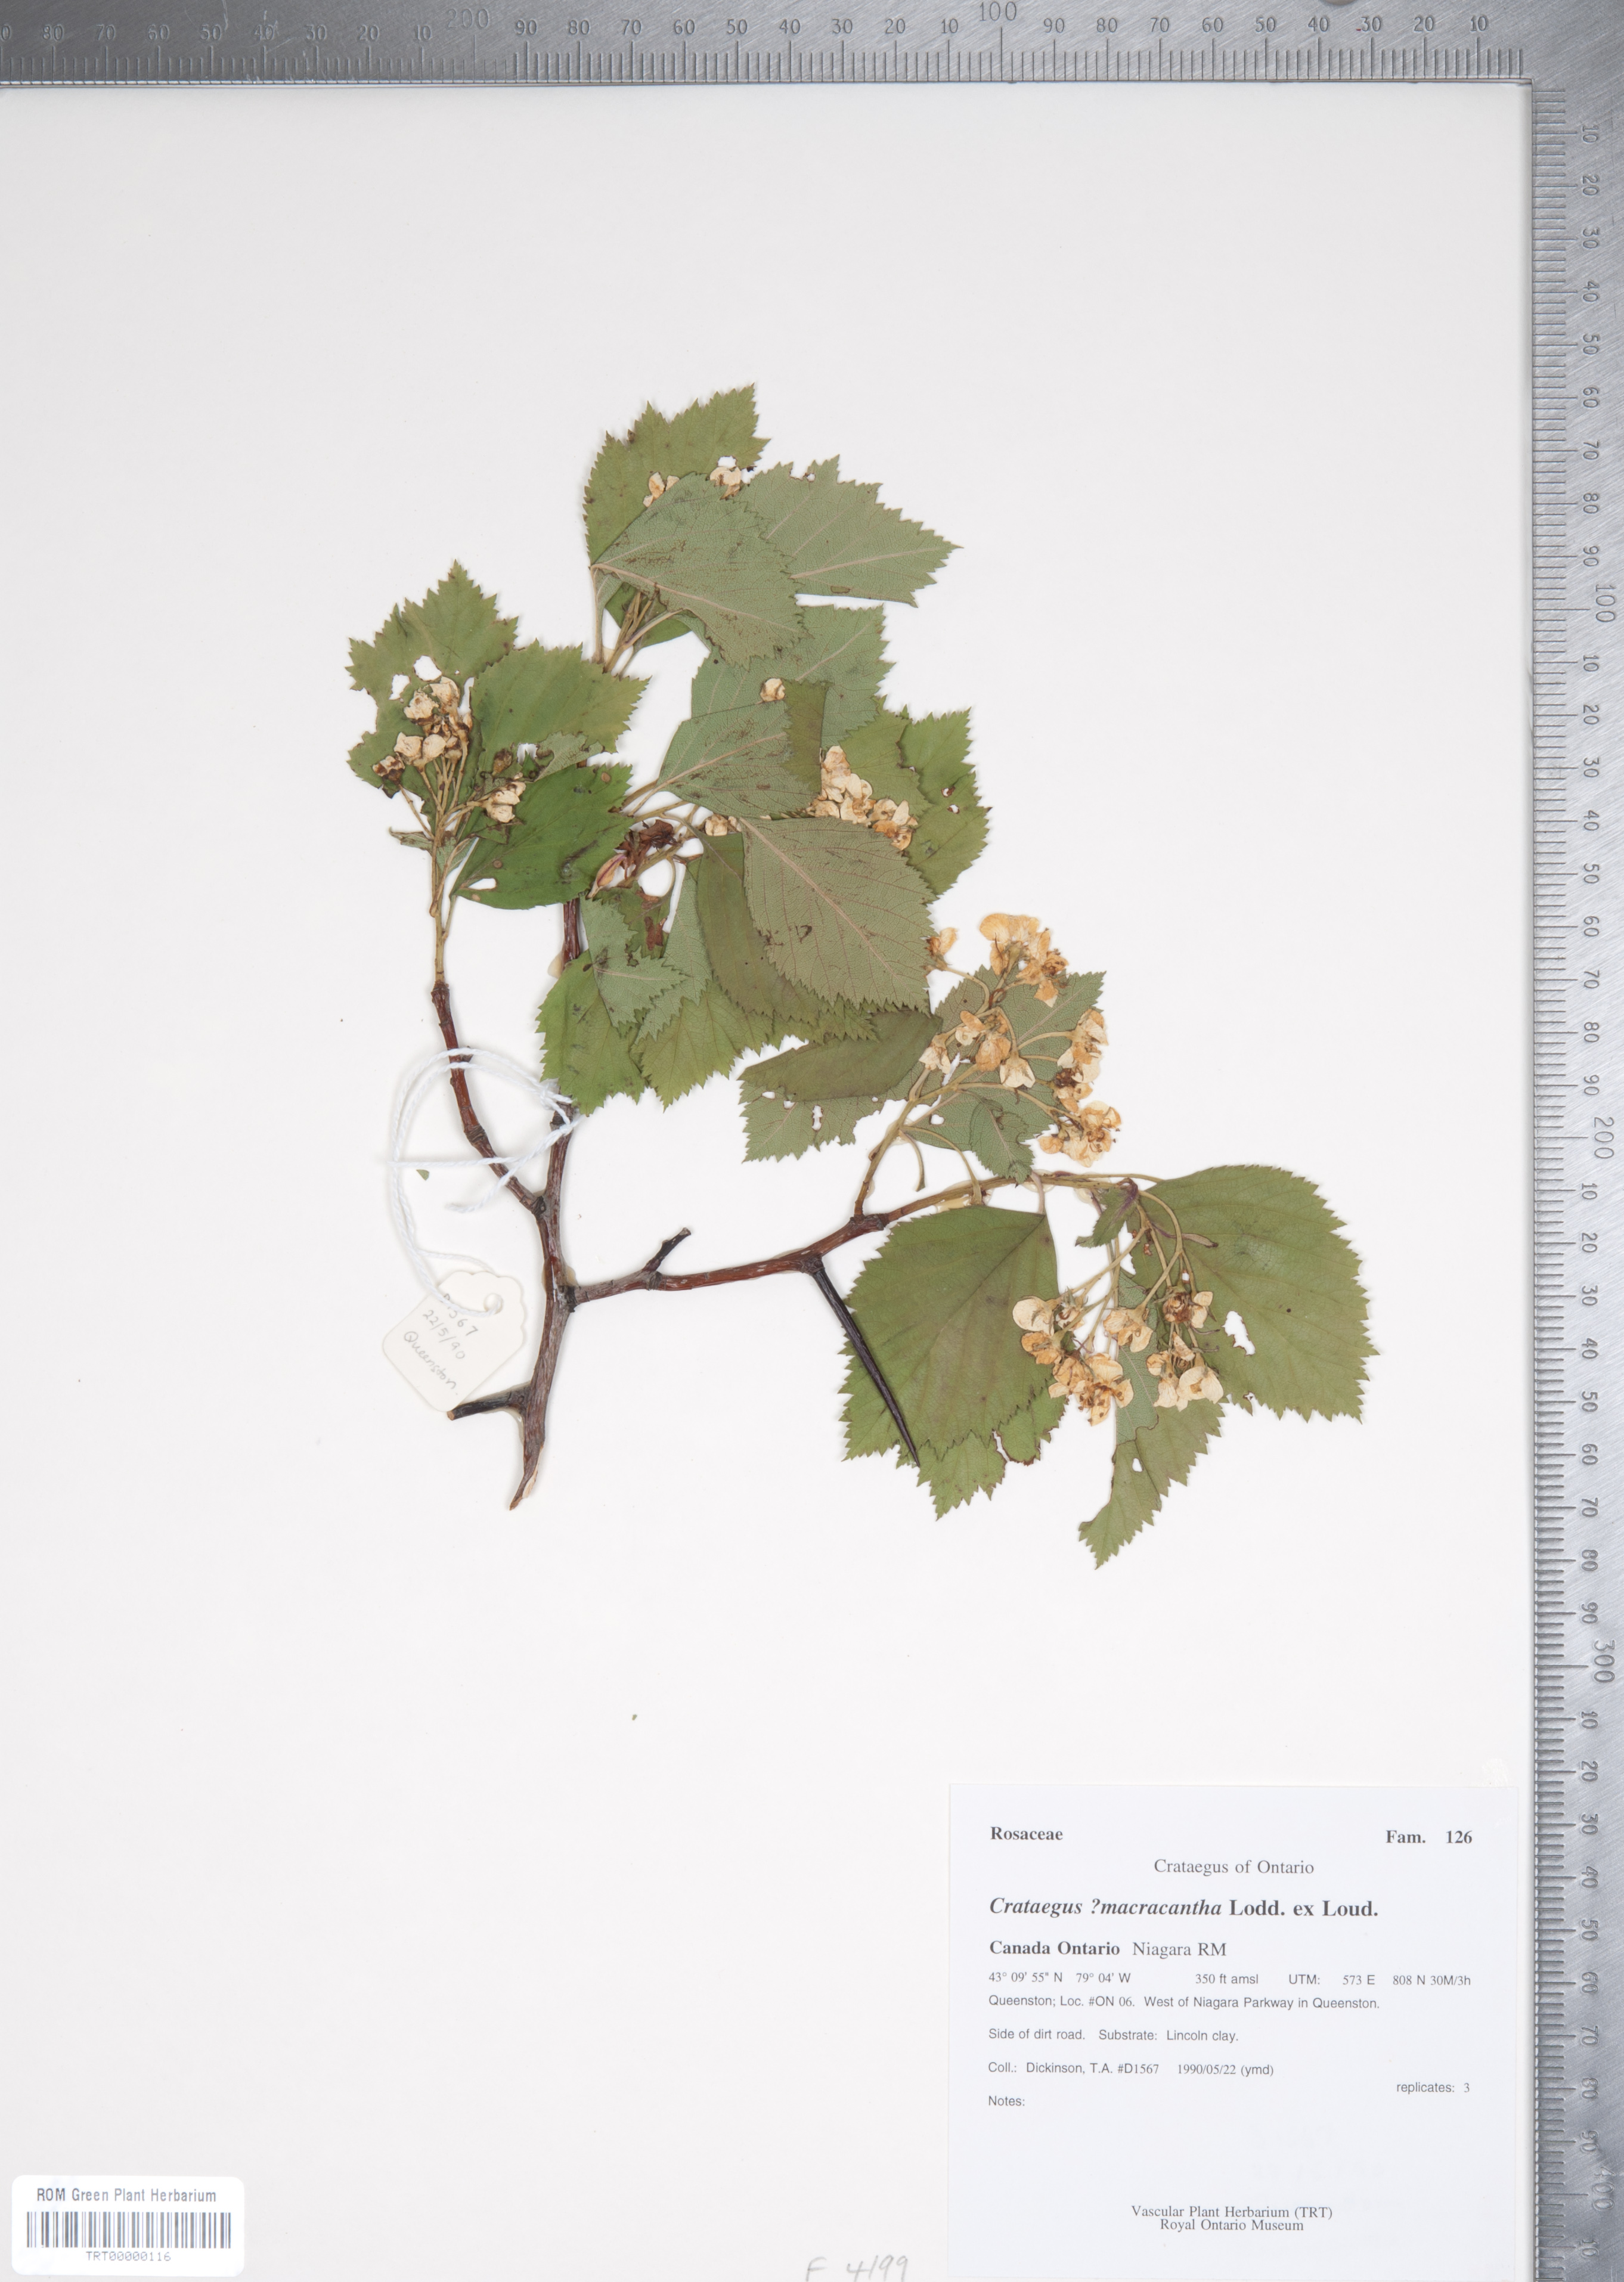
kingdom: Plantae
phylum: Tracheophyta
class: Magnoliopsida
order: Rosales
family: Rosaceae
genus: Crataegus
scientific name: Crataegus macracantha
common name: Large-thorn hawthorn
